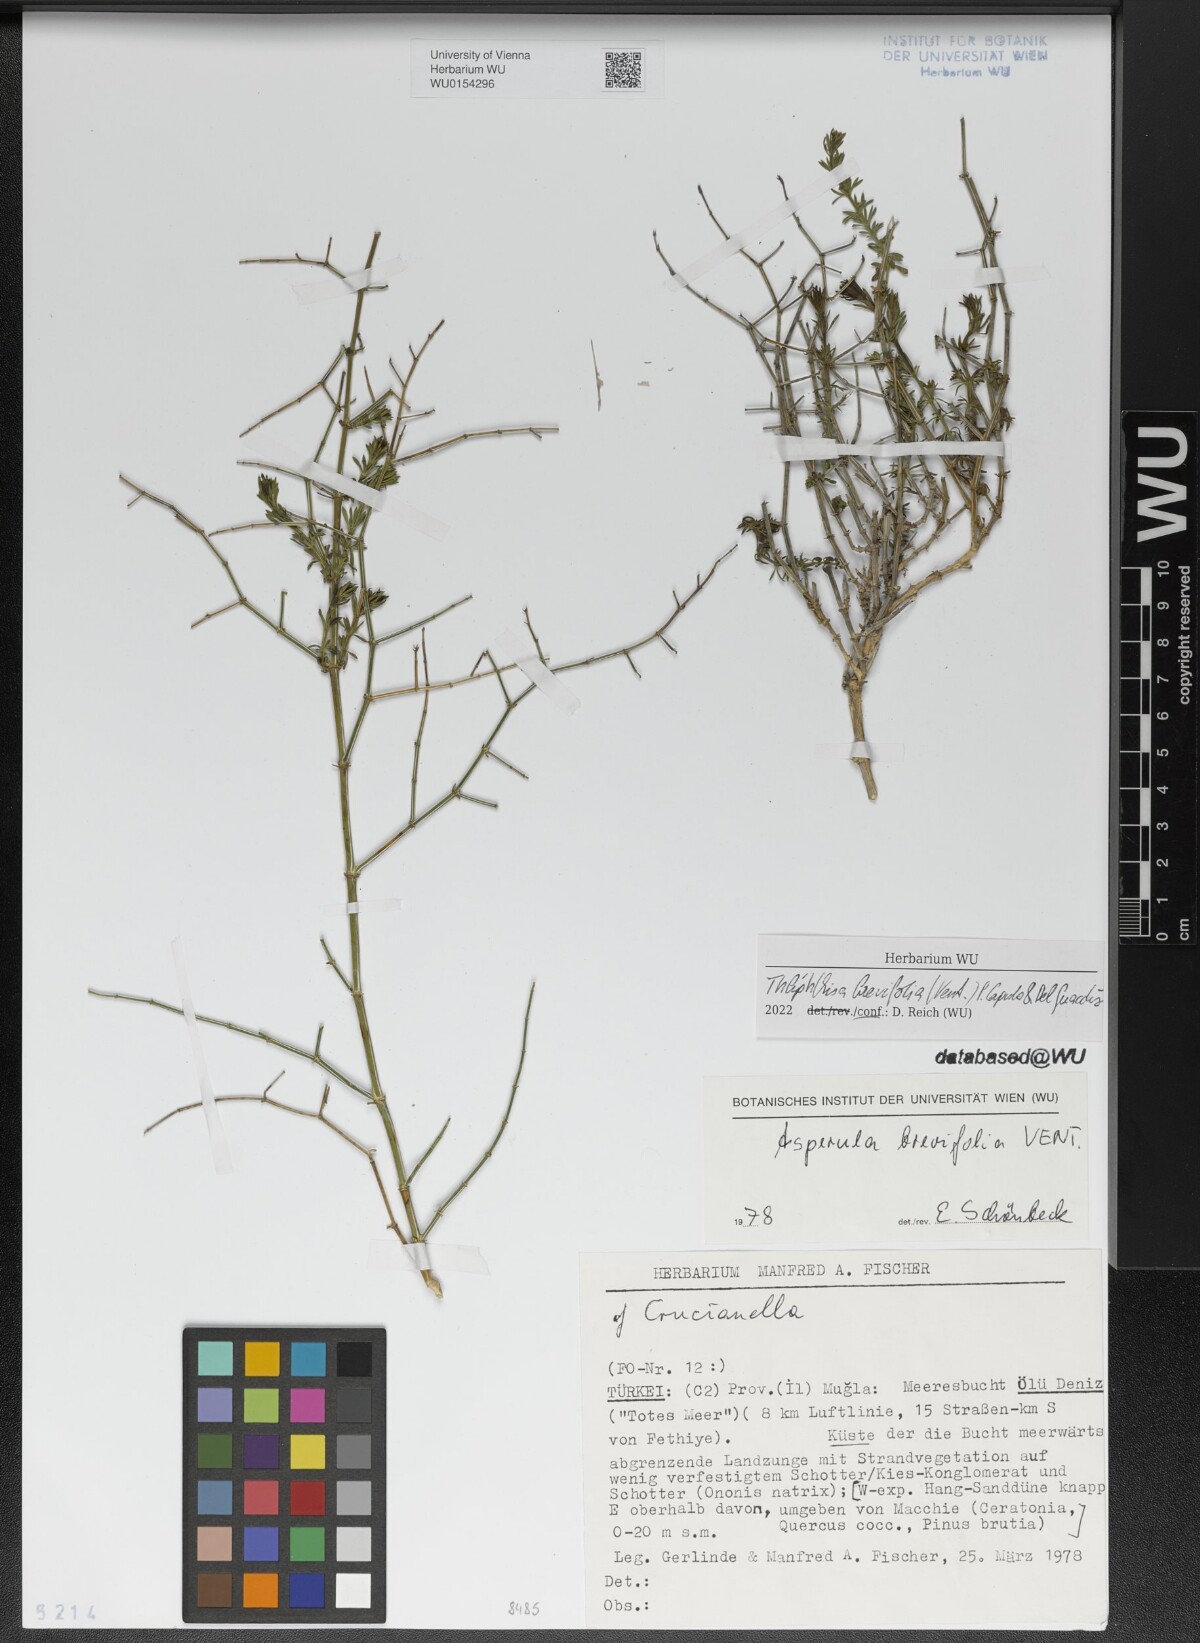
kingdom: Plantae
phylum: Tracheophyta
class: Magnoliopsida
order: Gentianales
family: Rubiaceae
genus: Thliphthisa
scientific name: Thliphthisa brevifolia
